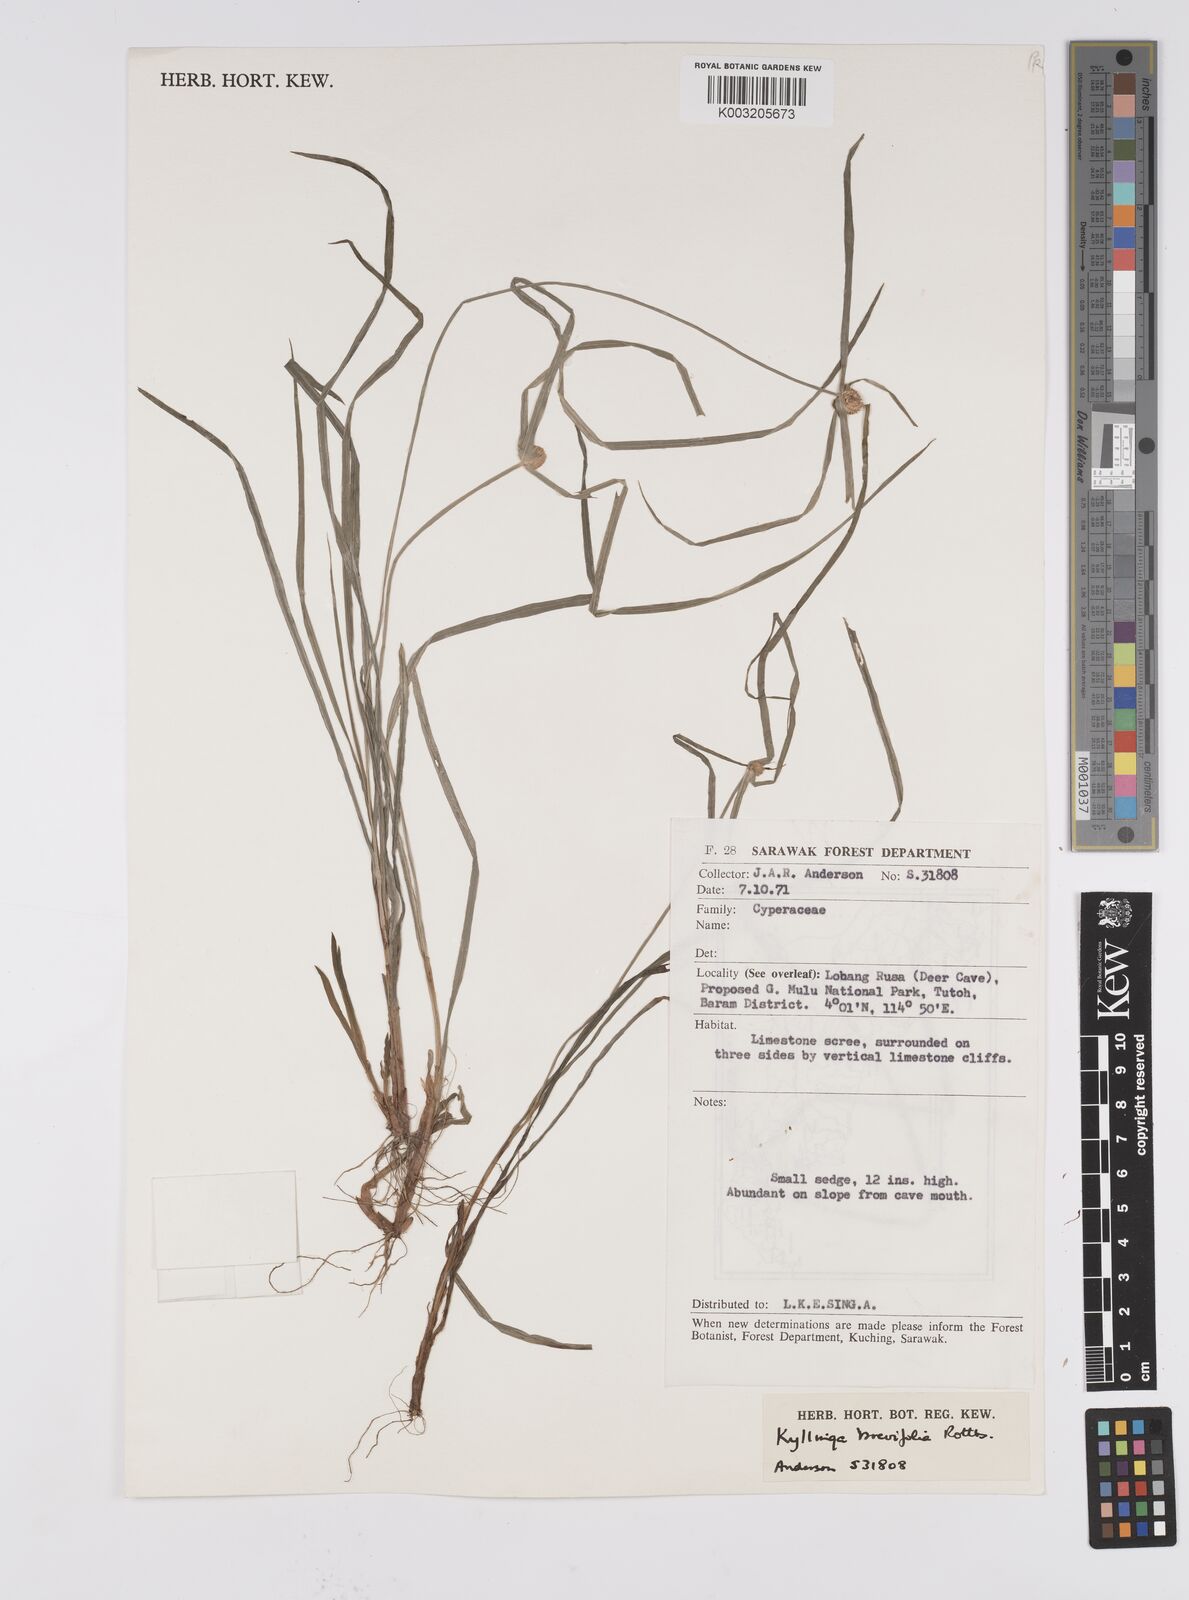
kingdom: Plantae
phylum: Tracheophyta
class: Liliopsida
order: Poales
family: Cyperaceae
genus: Cyperus
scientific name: Cyperus brevifolius
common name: Globe kyllinga
